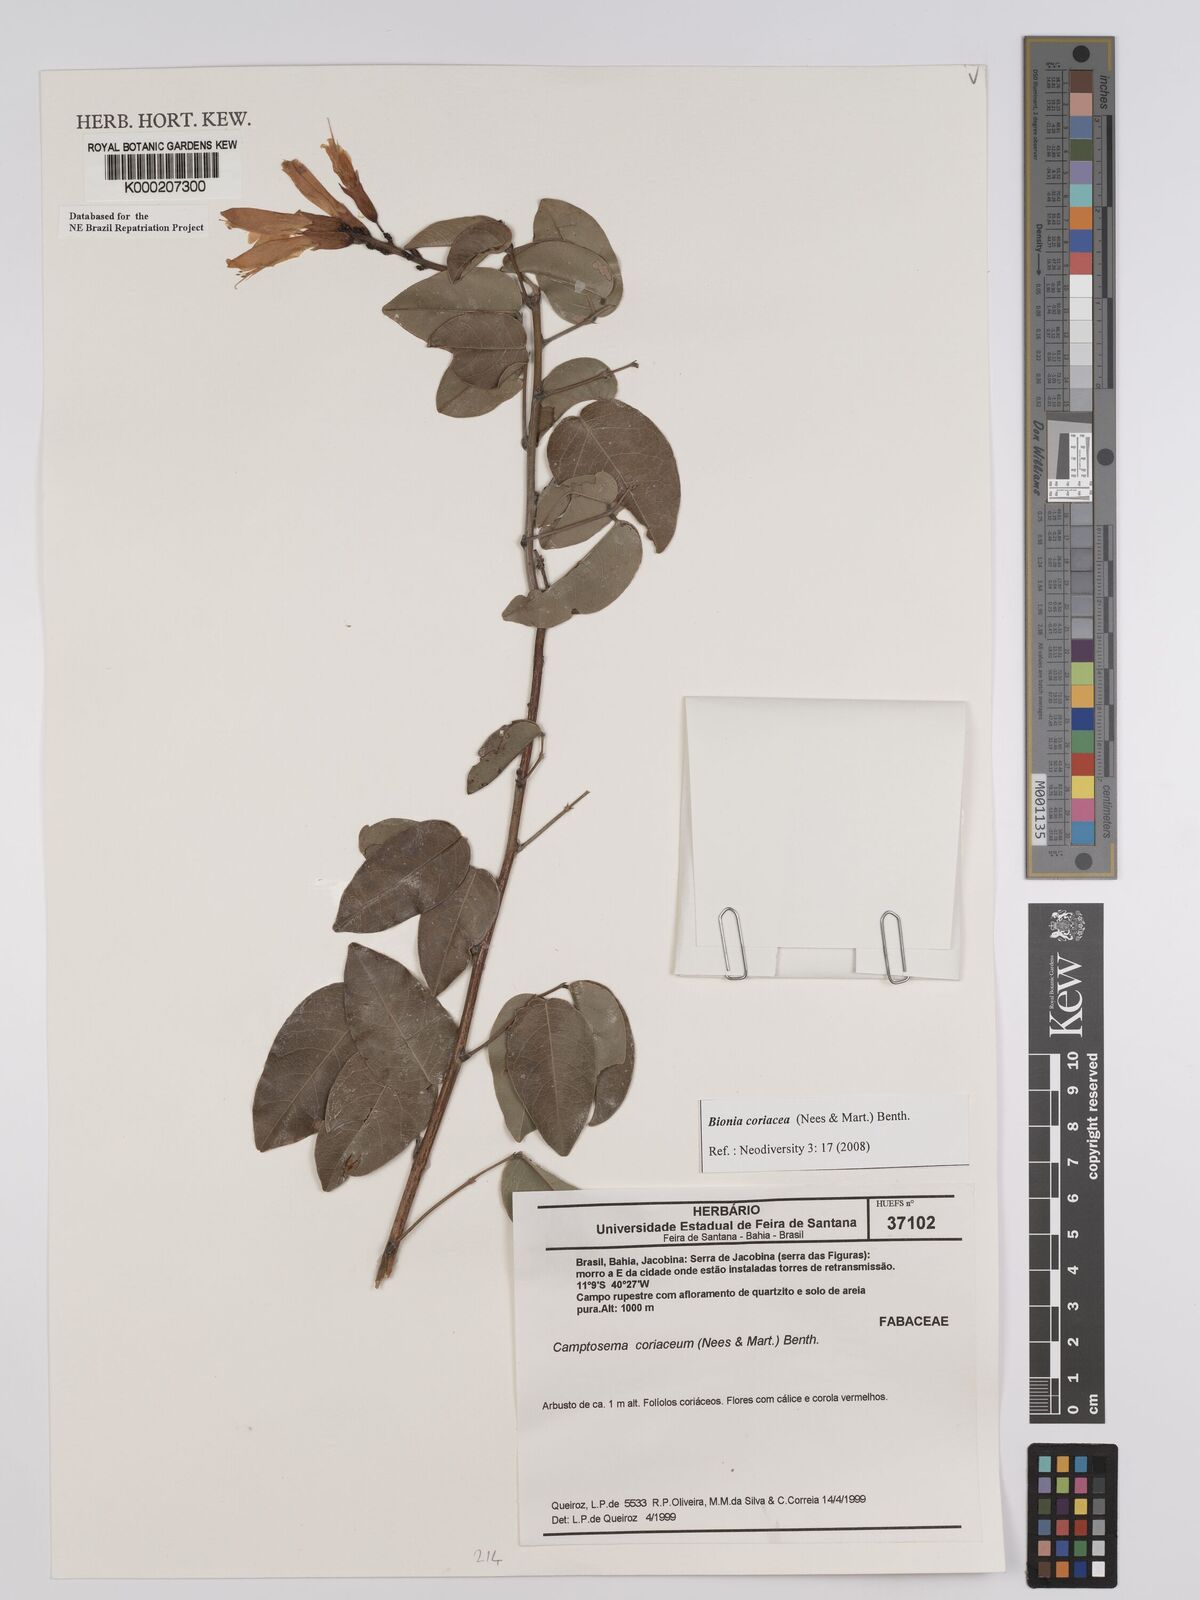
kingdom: Plantae
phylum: Tracheophyta
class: Magnoliopsida
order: Fabales
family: Fabaceae
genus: Camptosema
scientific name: Camptosema coriaceum
